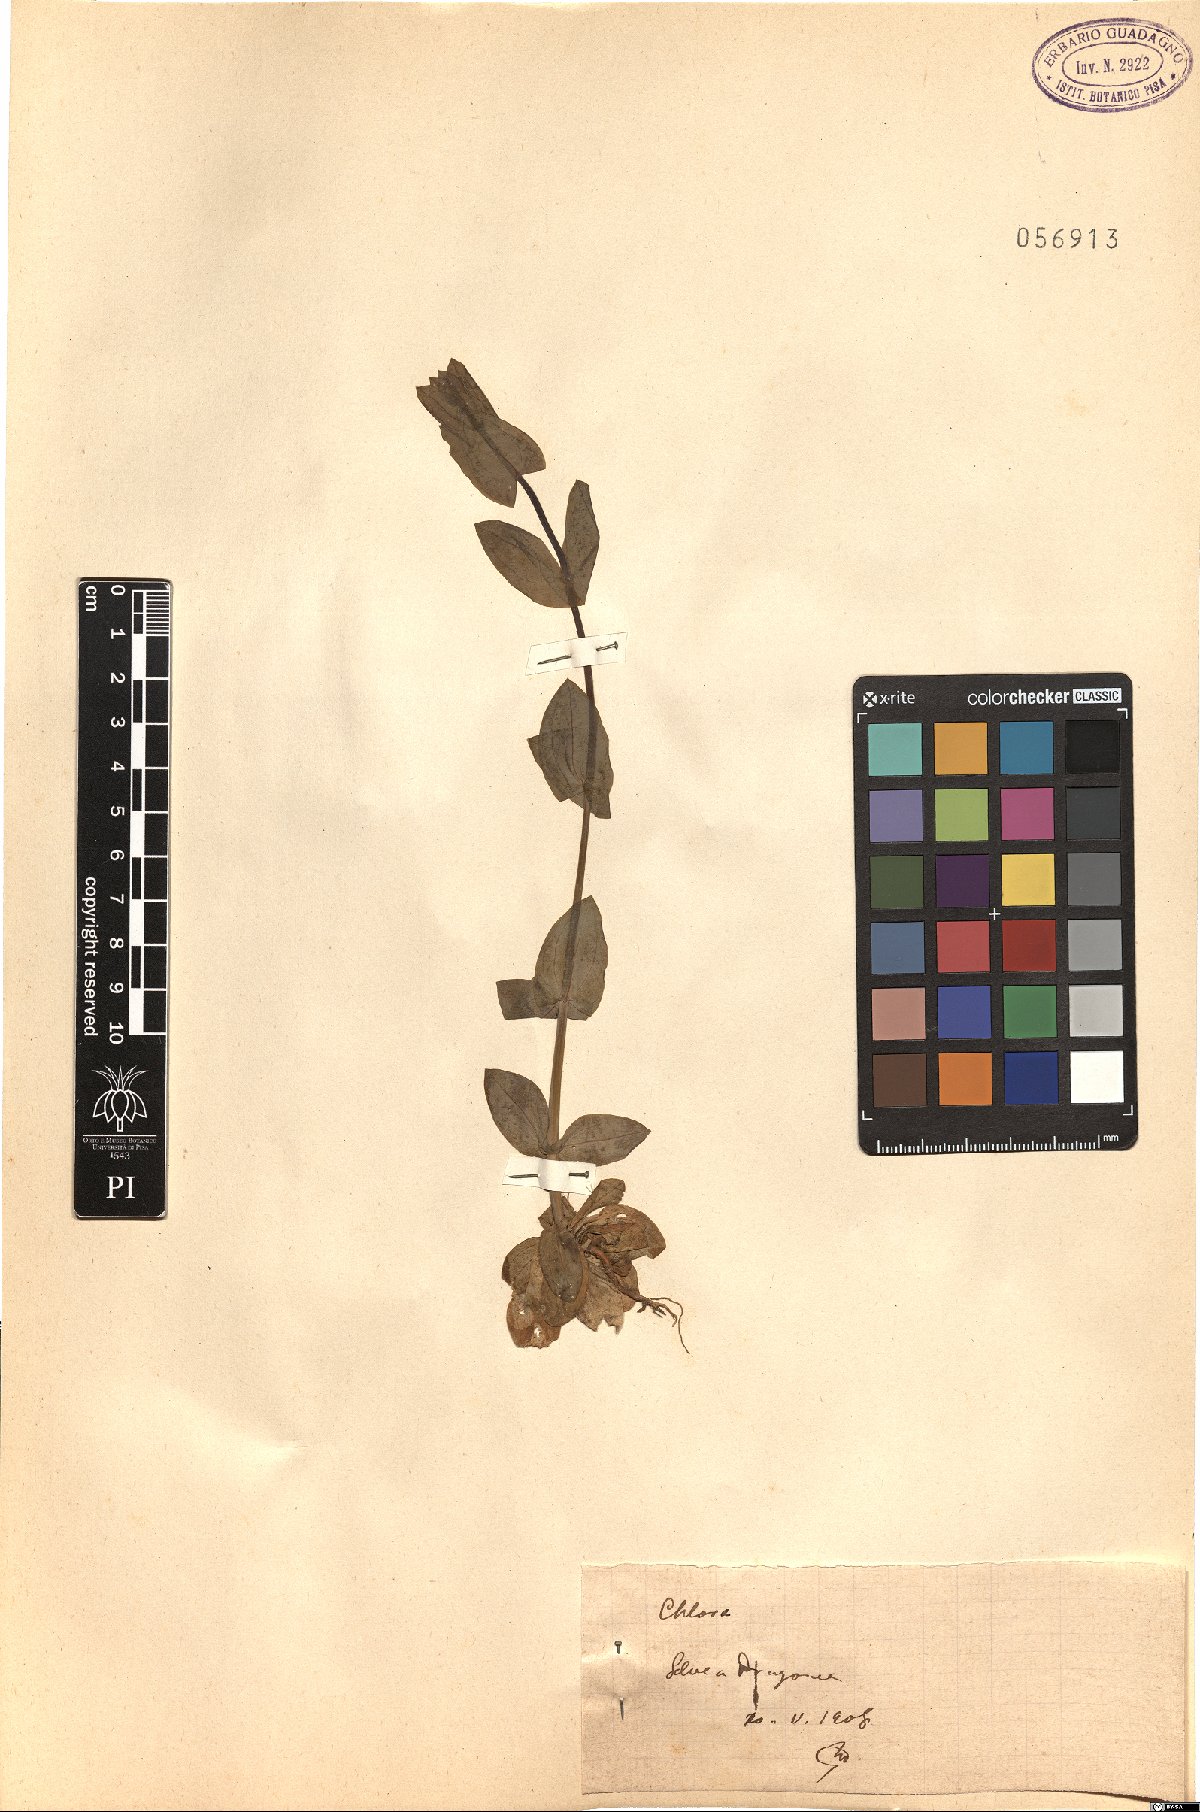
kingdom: Plantae
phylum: Tracheophyta
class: Magnoliopsida
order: Gentianales
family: Gentianaceae
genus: Blackstonia
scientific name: Blackstonia
